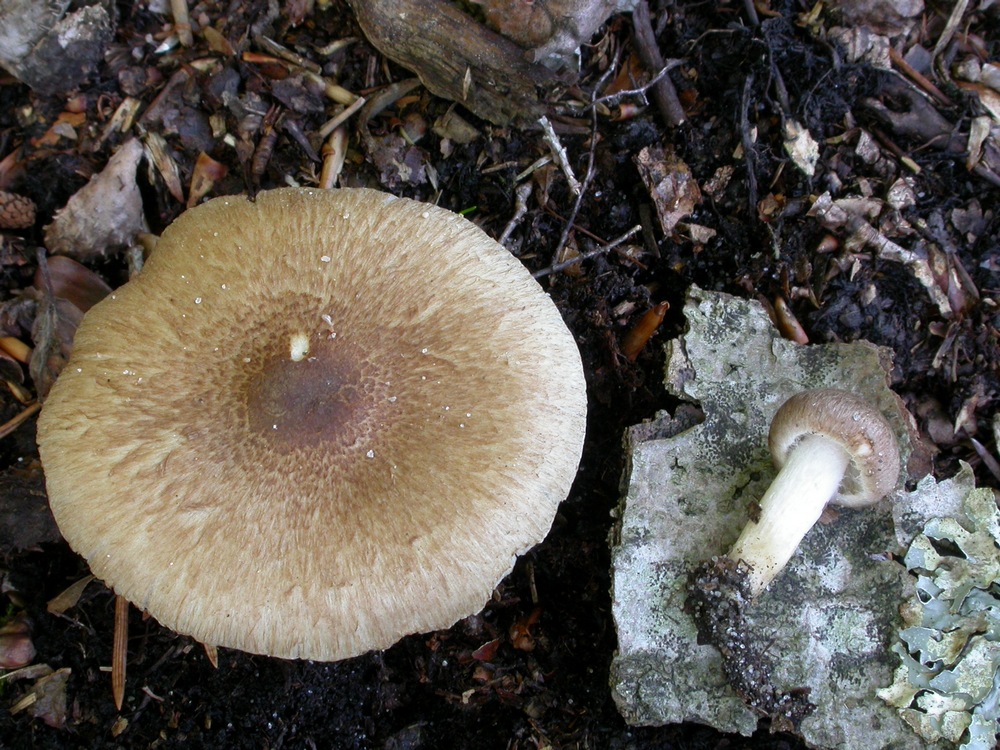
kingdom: Fungi
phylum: Basidiomycota
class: Agaricomycetes
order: Agaricales
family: Inocybaceae
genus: Inocybe
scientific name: Inocybe
